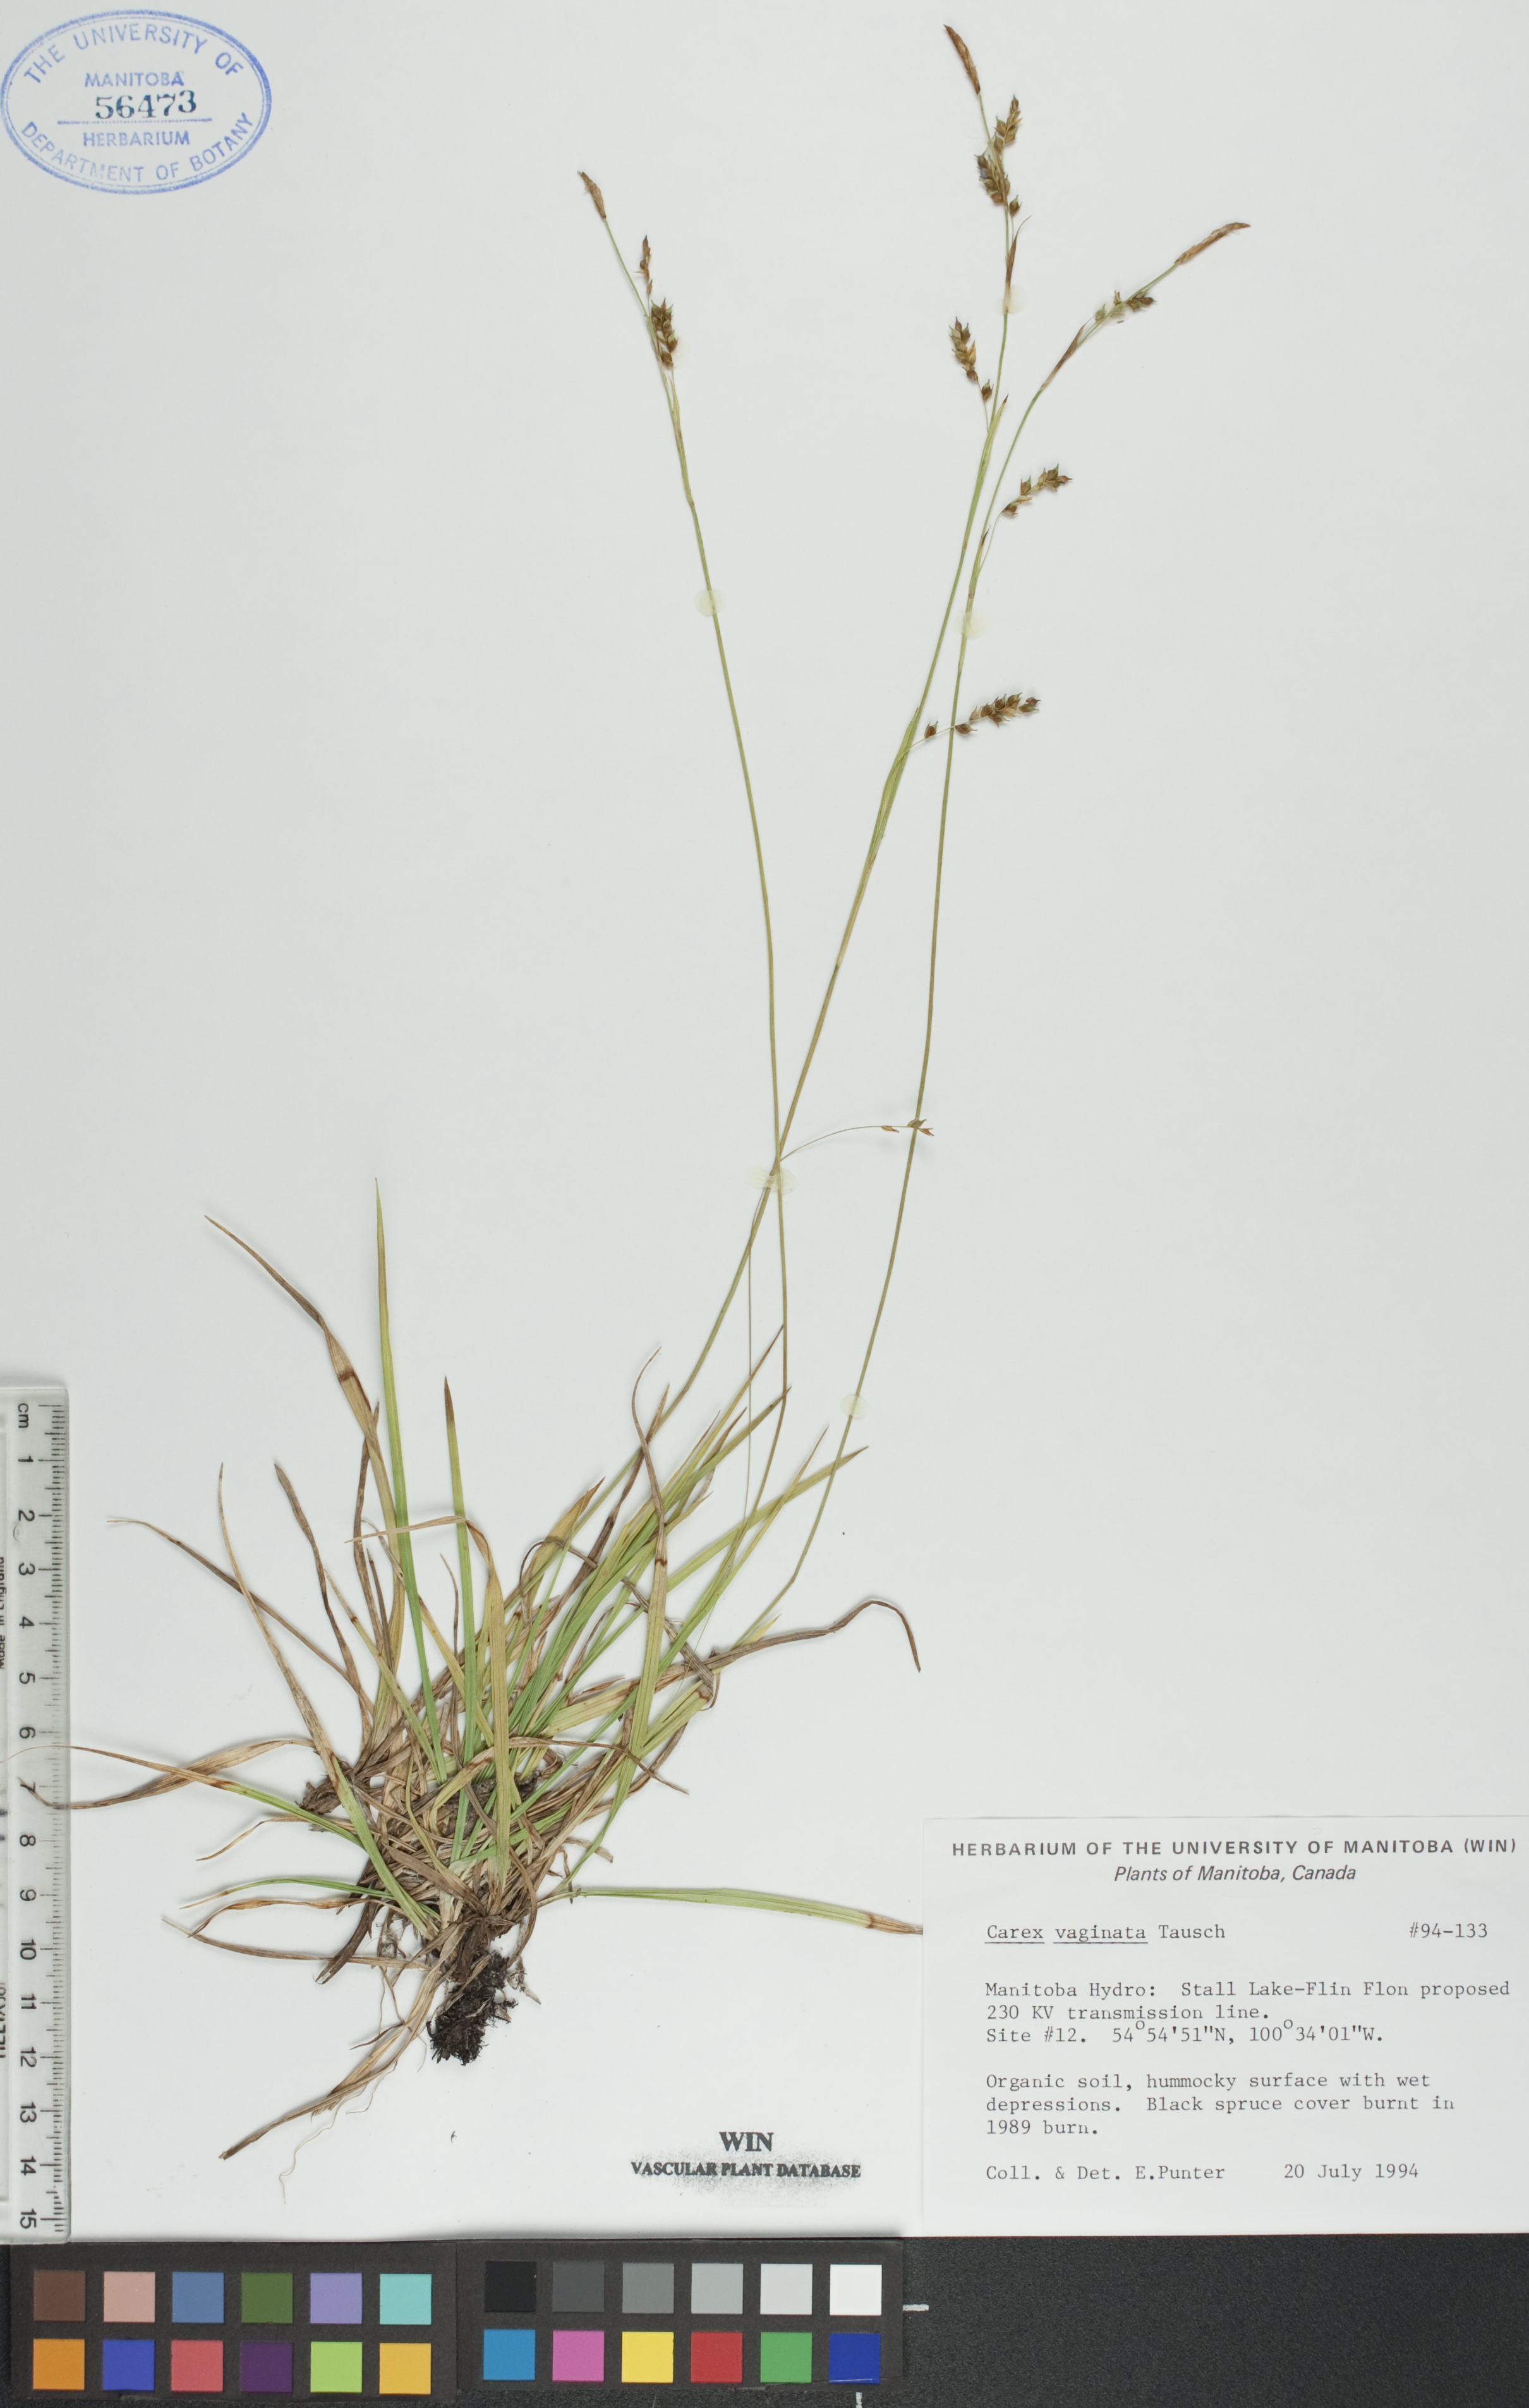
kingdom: Plantae
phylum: Tracheophyta
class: Liliopsida
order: Poales
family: Cyperaceae
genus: Carex
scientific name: Carex vaginata
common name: Sheathed sedge
